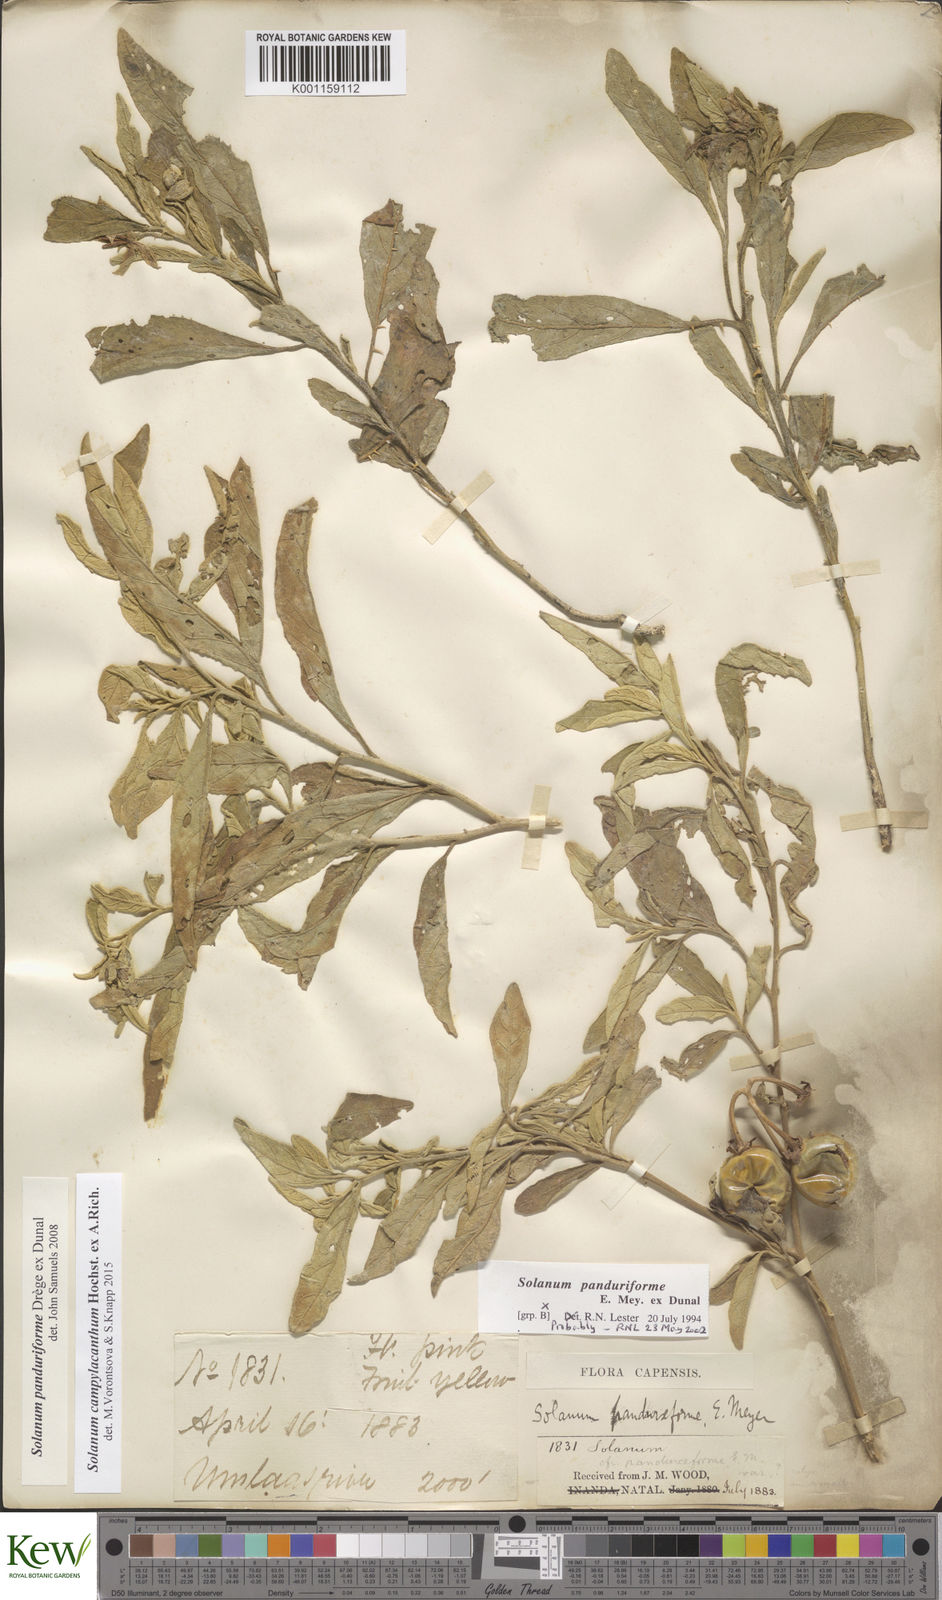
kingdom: Plantae
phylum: Tracheophyta
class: Magnoliopsida
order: Solanales
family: Solanaceae
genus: Solanum
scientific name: Solanum campylacanthum
